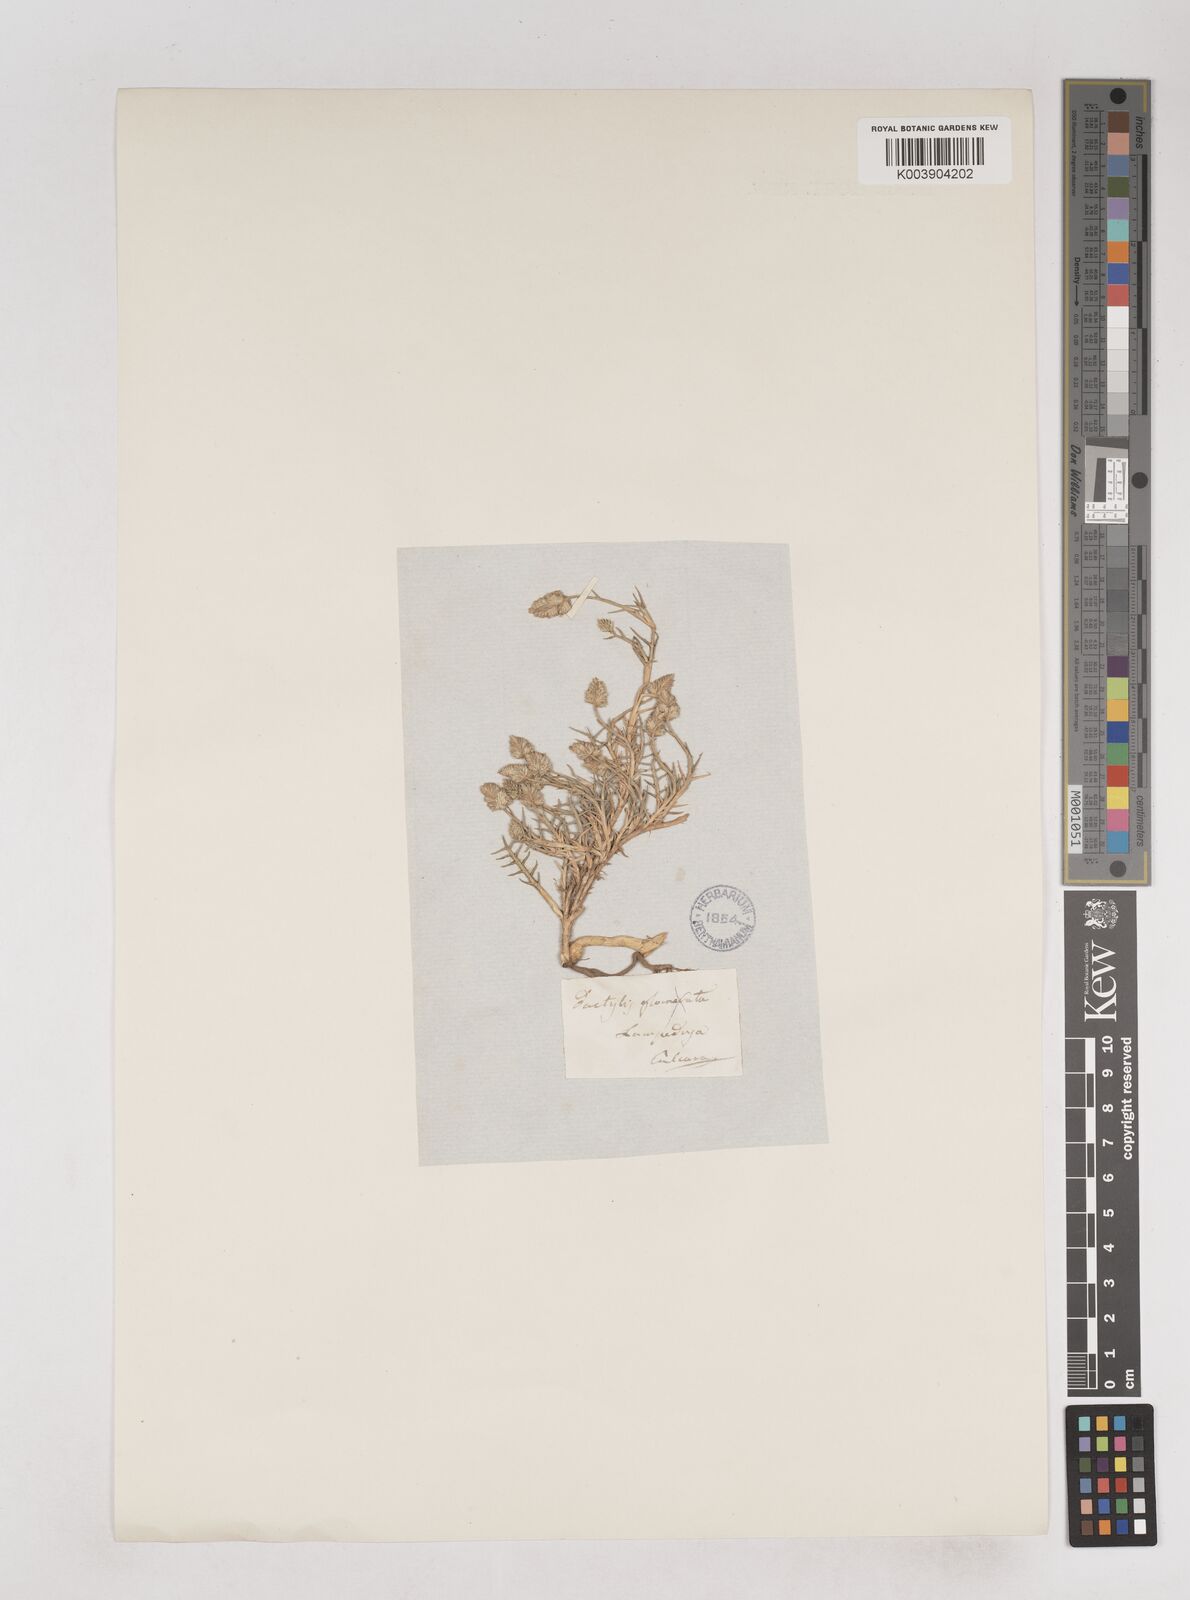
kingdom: Plantae
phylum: Tracheophyta
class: Liliopsida
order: Poales
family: Poaceae
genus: Aeluropus
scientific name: Aeluropus lagopoides
